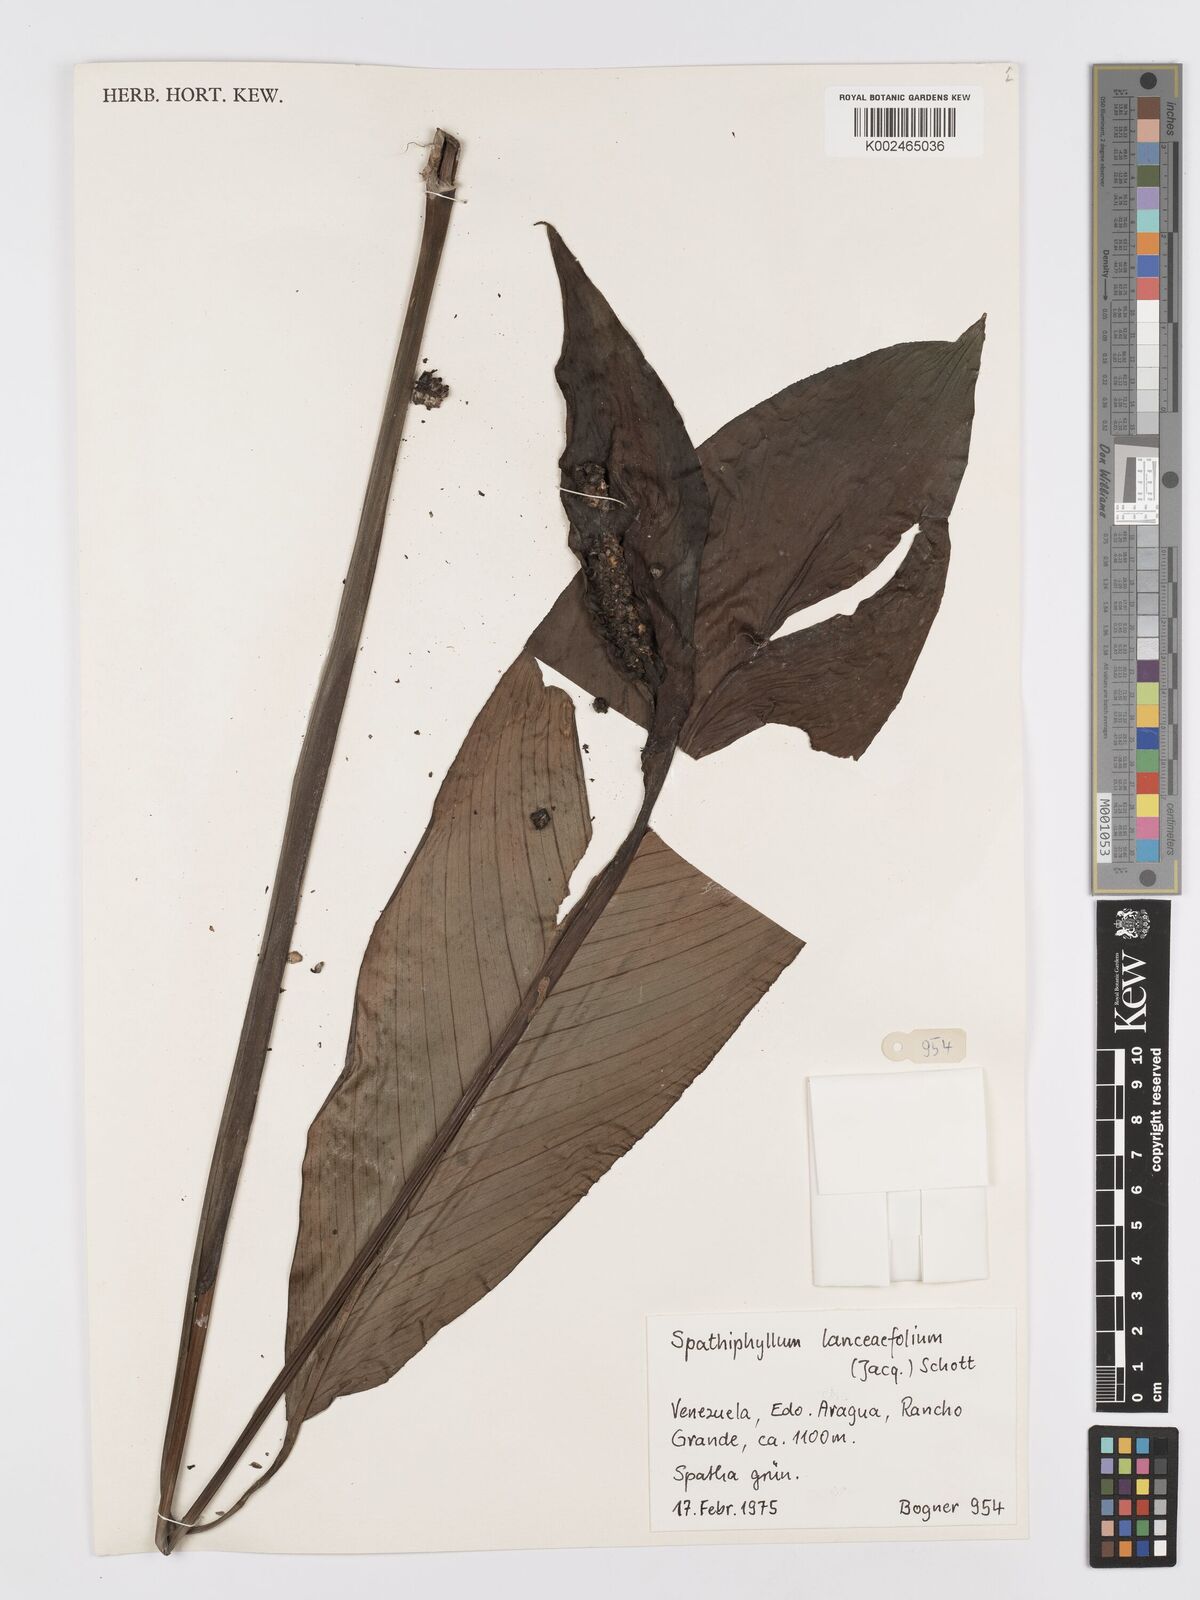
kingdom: Plantae
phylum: Tracheophyta
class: Liliopsida
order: Alismatales
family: Araceae
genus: Spathiphyllum
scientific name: Spathiphyllum lanceifolium
